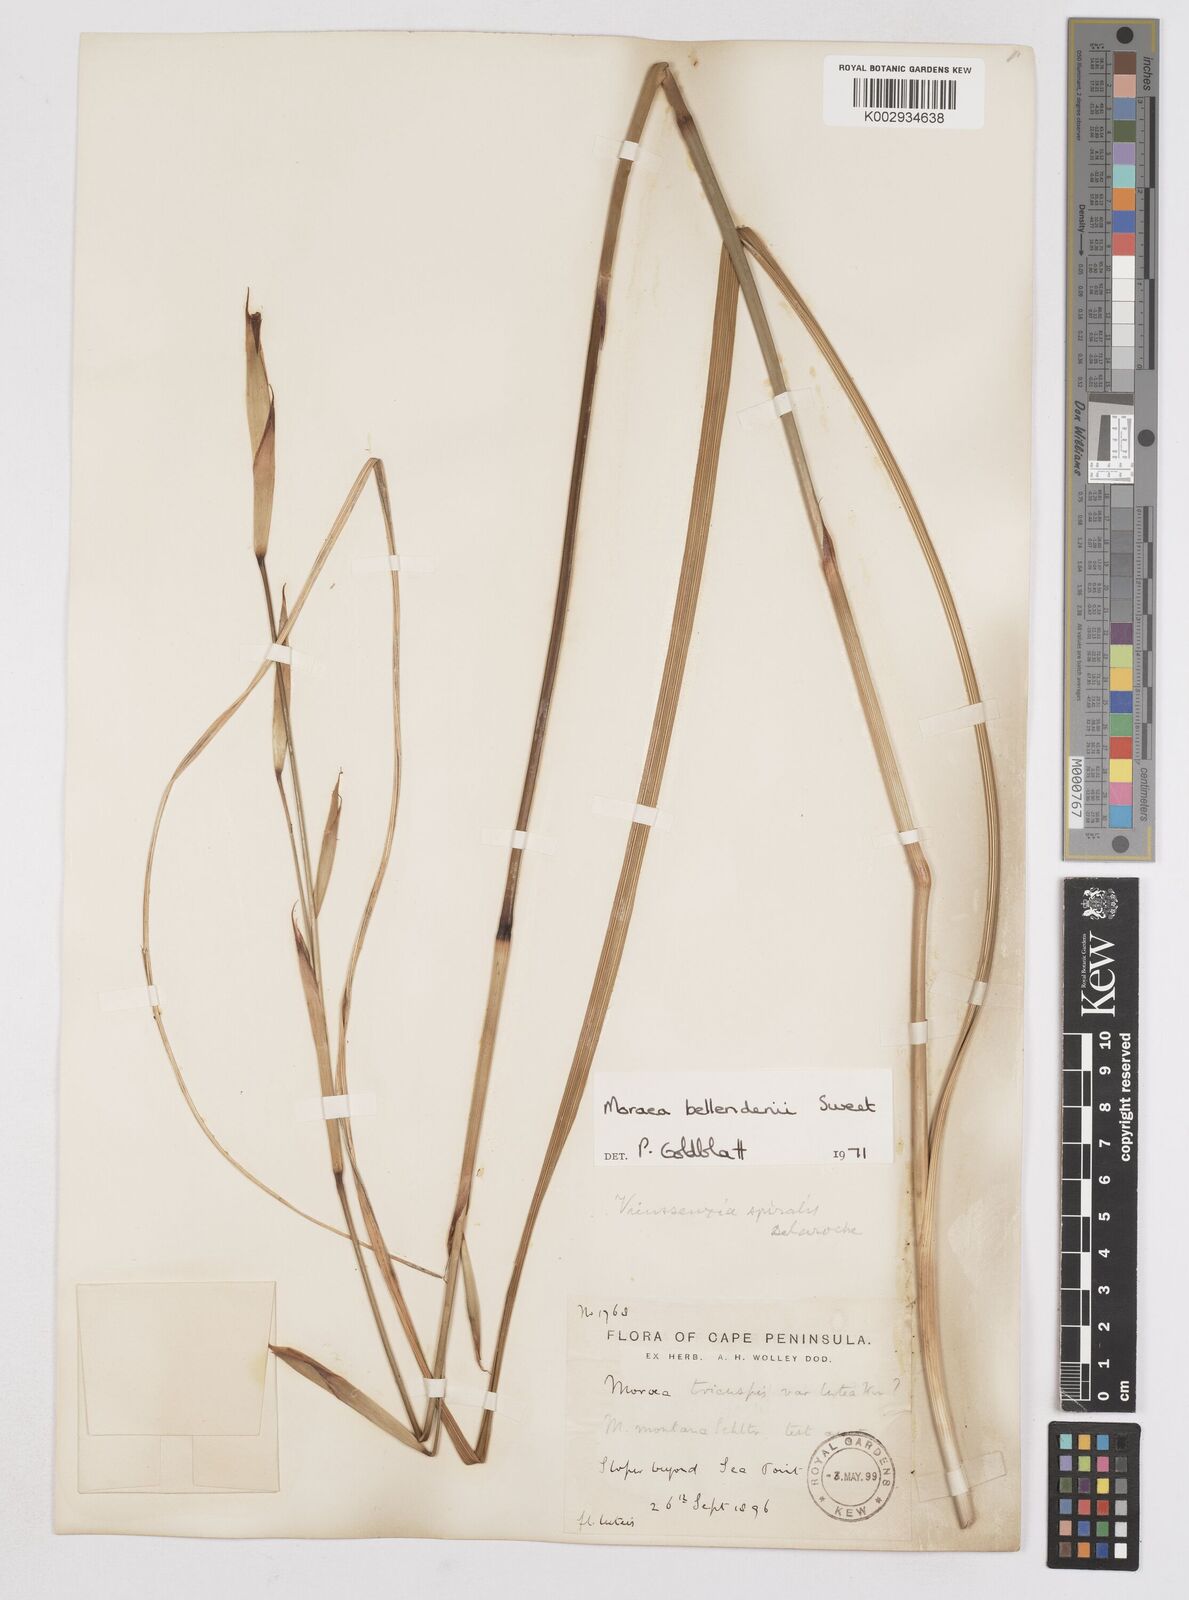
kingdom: Plantae
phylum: Tracheophyta
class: Liliopsida
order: Asparagales
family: Iridaceae
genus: Moraea
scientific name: Moraea bellendenii
